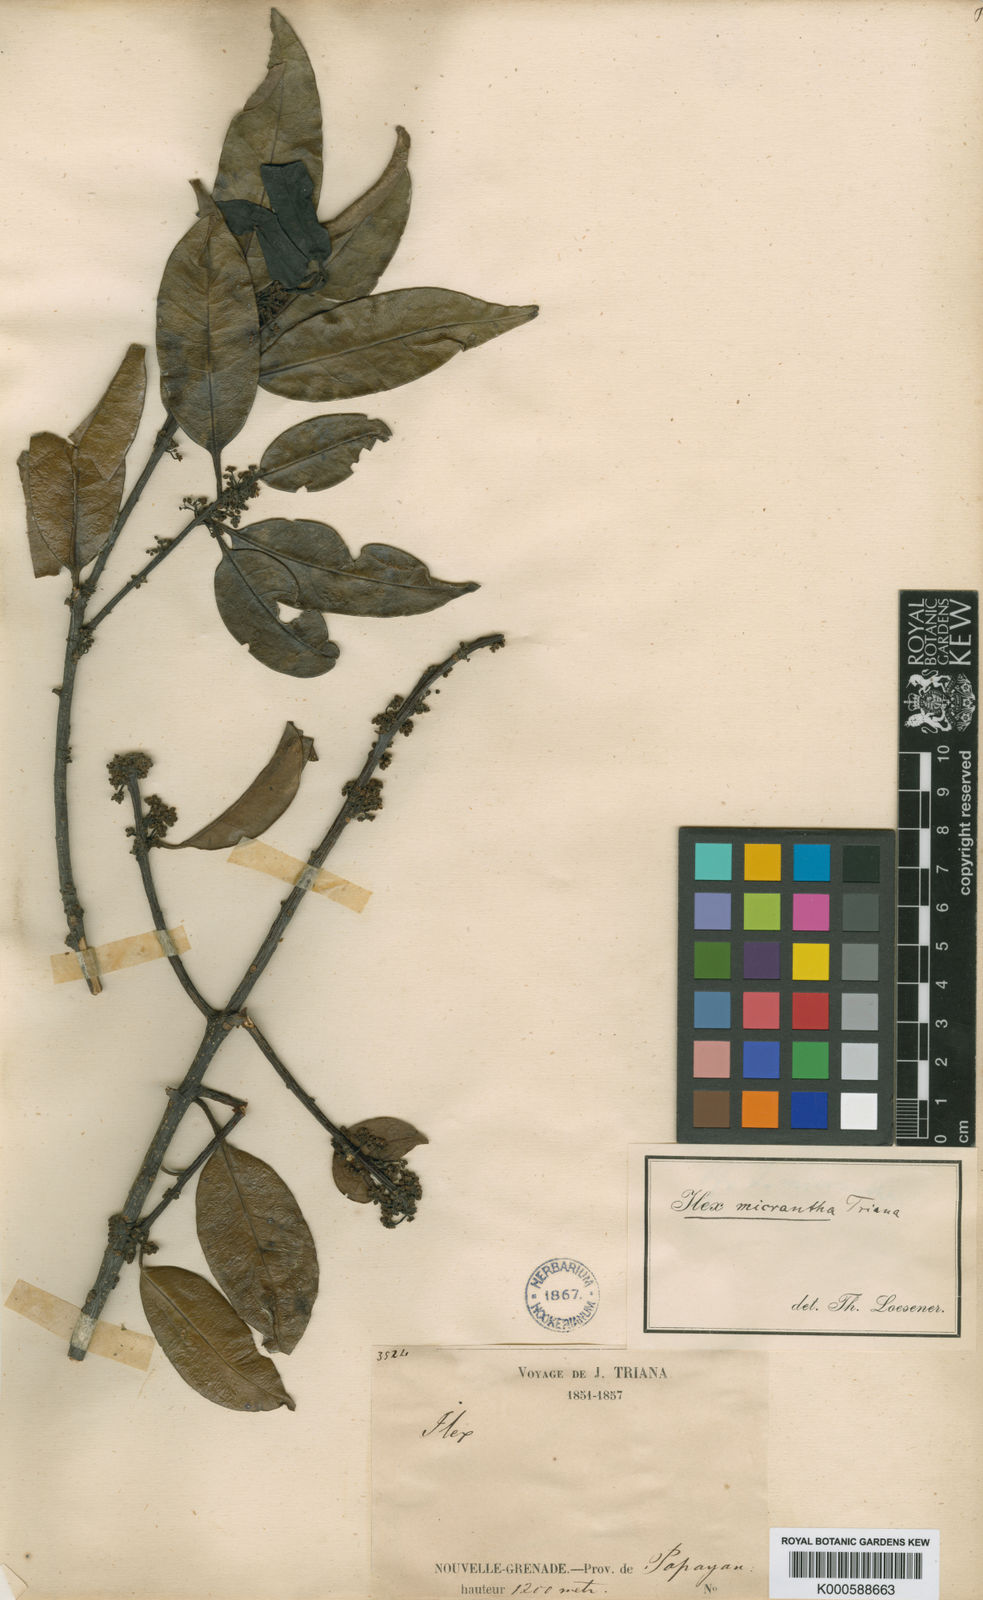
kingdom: Plantae
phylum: Tracheophyta
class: Magnoliopsida
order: Aquifoliales
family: Aquifoliaceae
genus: Ilex
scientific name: Ilex micrantha
